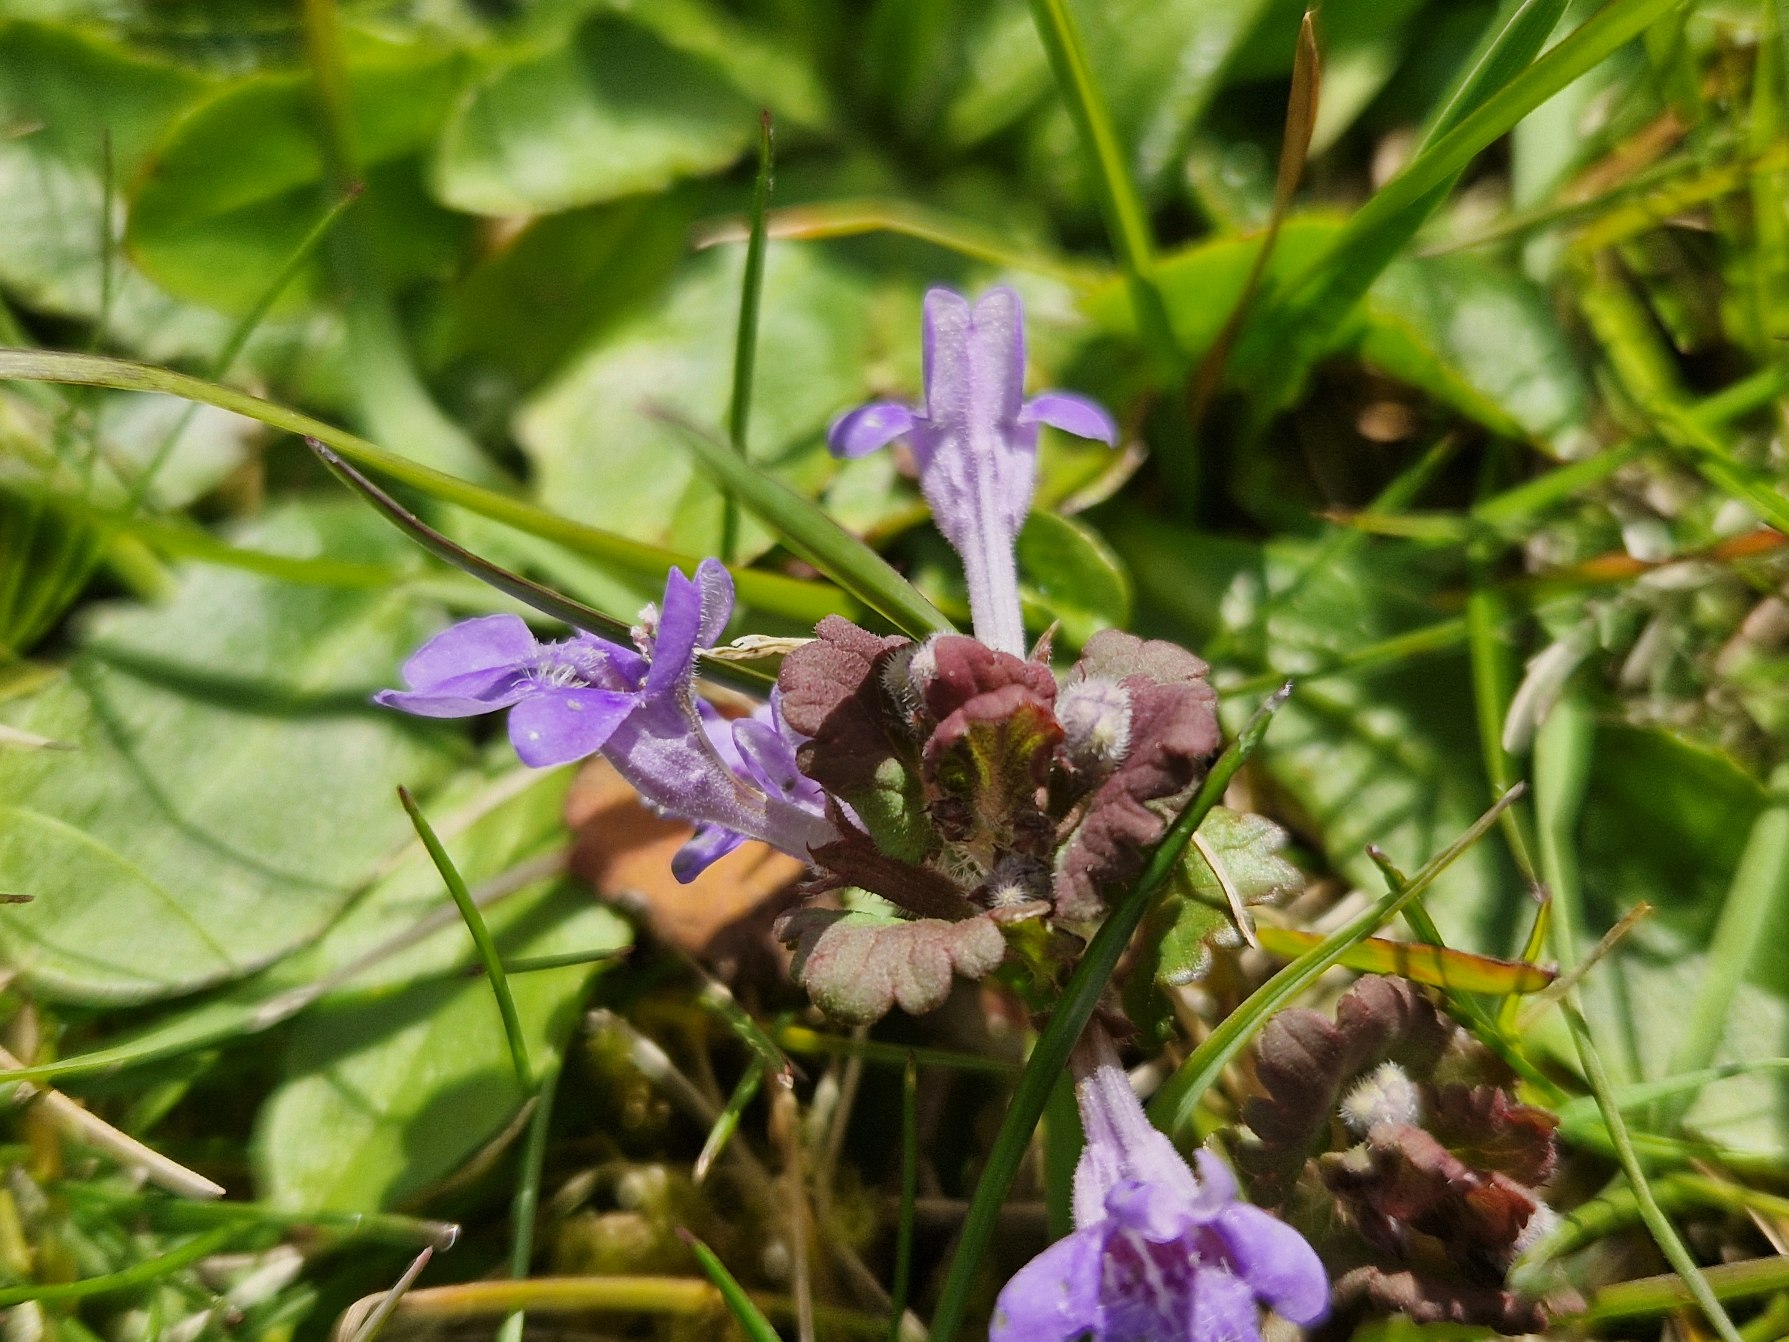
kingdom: Plantae
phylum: Tracheophyta
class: Magnoliopsida
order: Lamiales
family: Lamiaceae
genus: Glechoma
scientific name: Glechoma hederacea
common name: Korsknap
